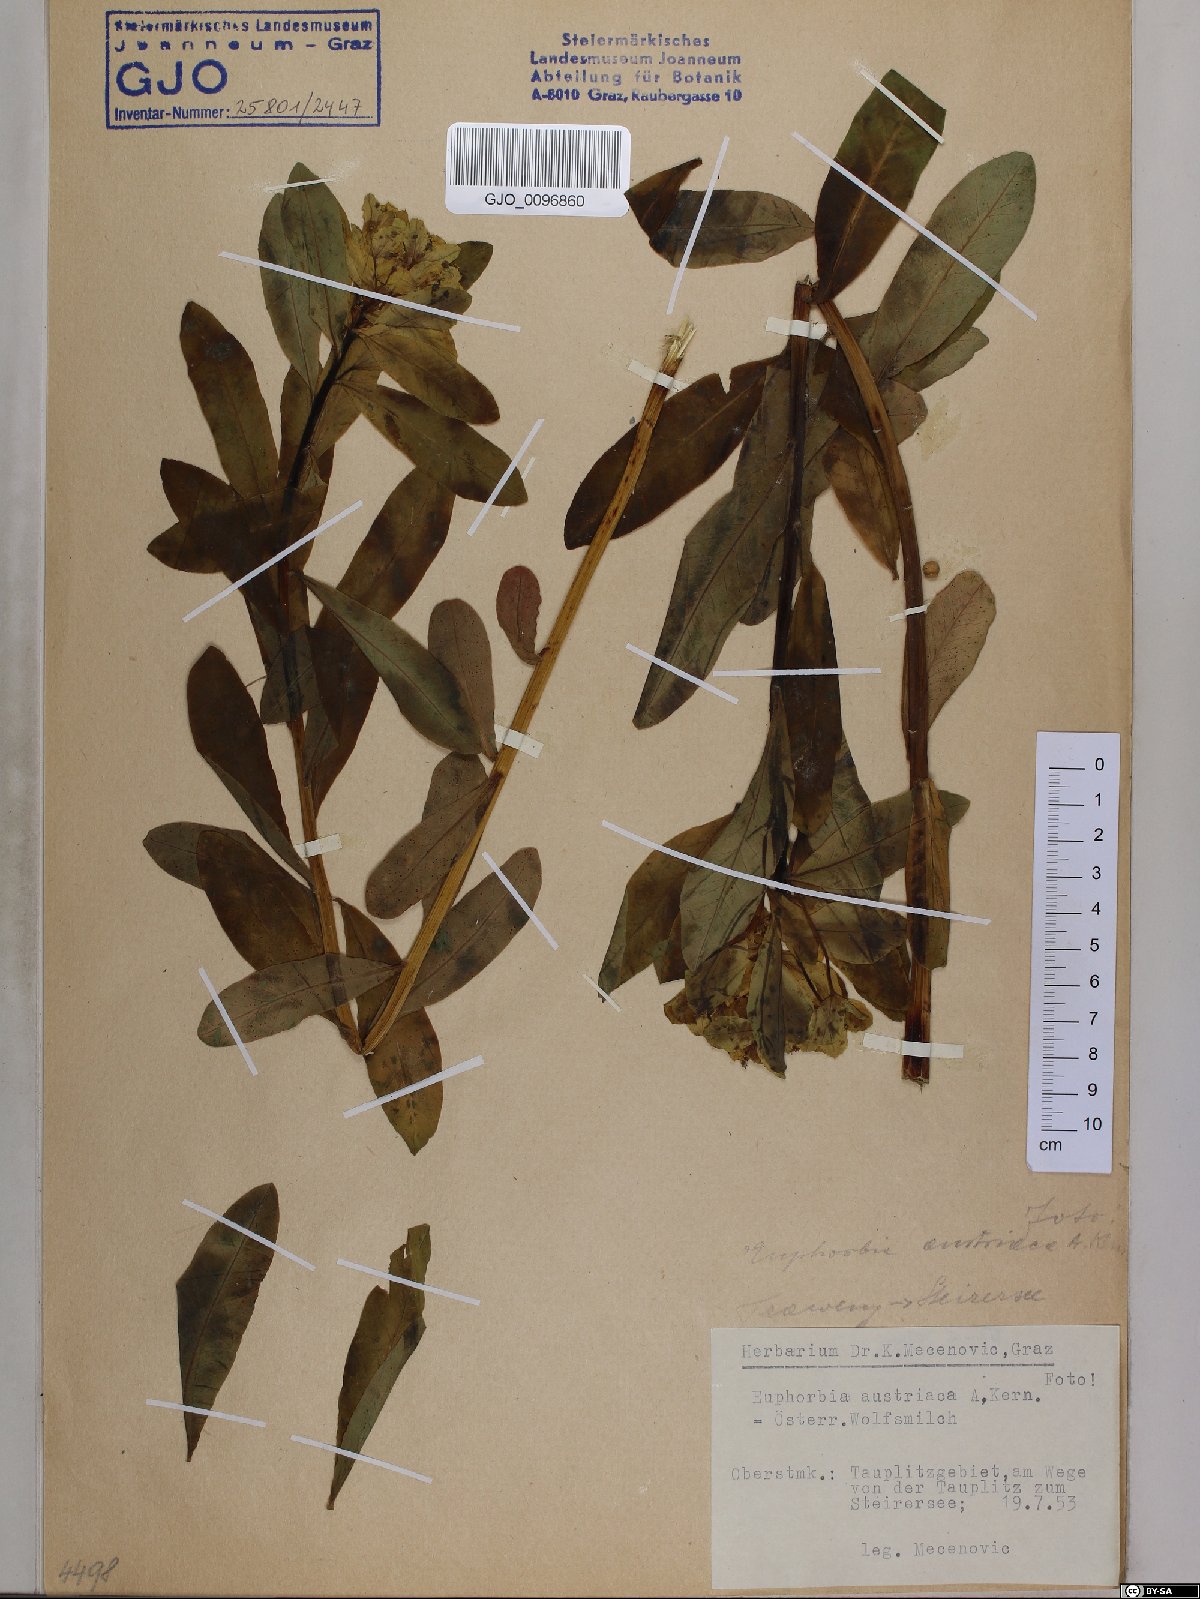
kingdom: Plantae
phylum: Tracheophyta
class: Magnoliopsida
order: Malpighiales
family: Euphorbiaceae
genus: Euphorbia
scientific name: Euphorbia austriaca
